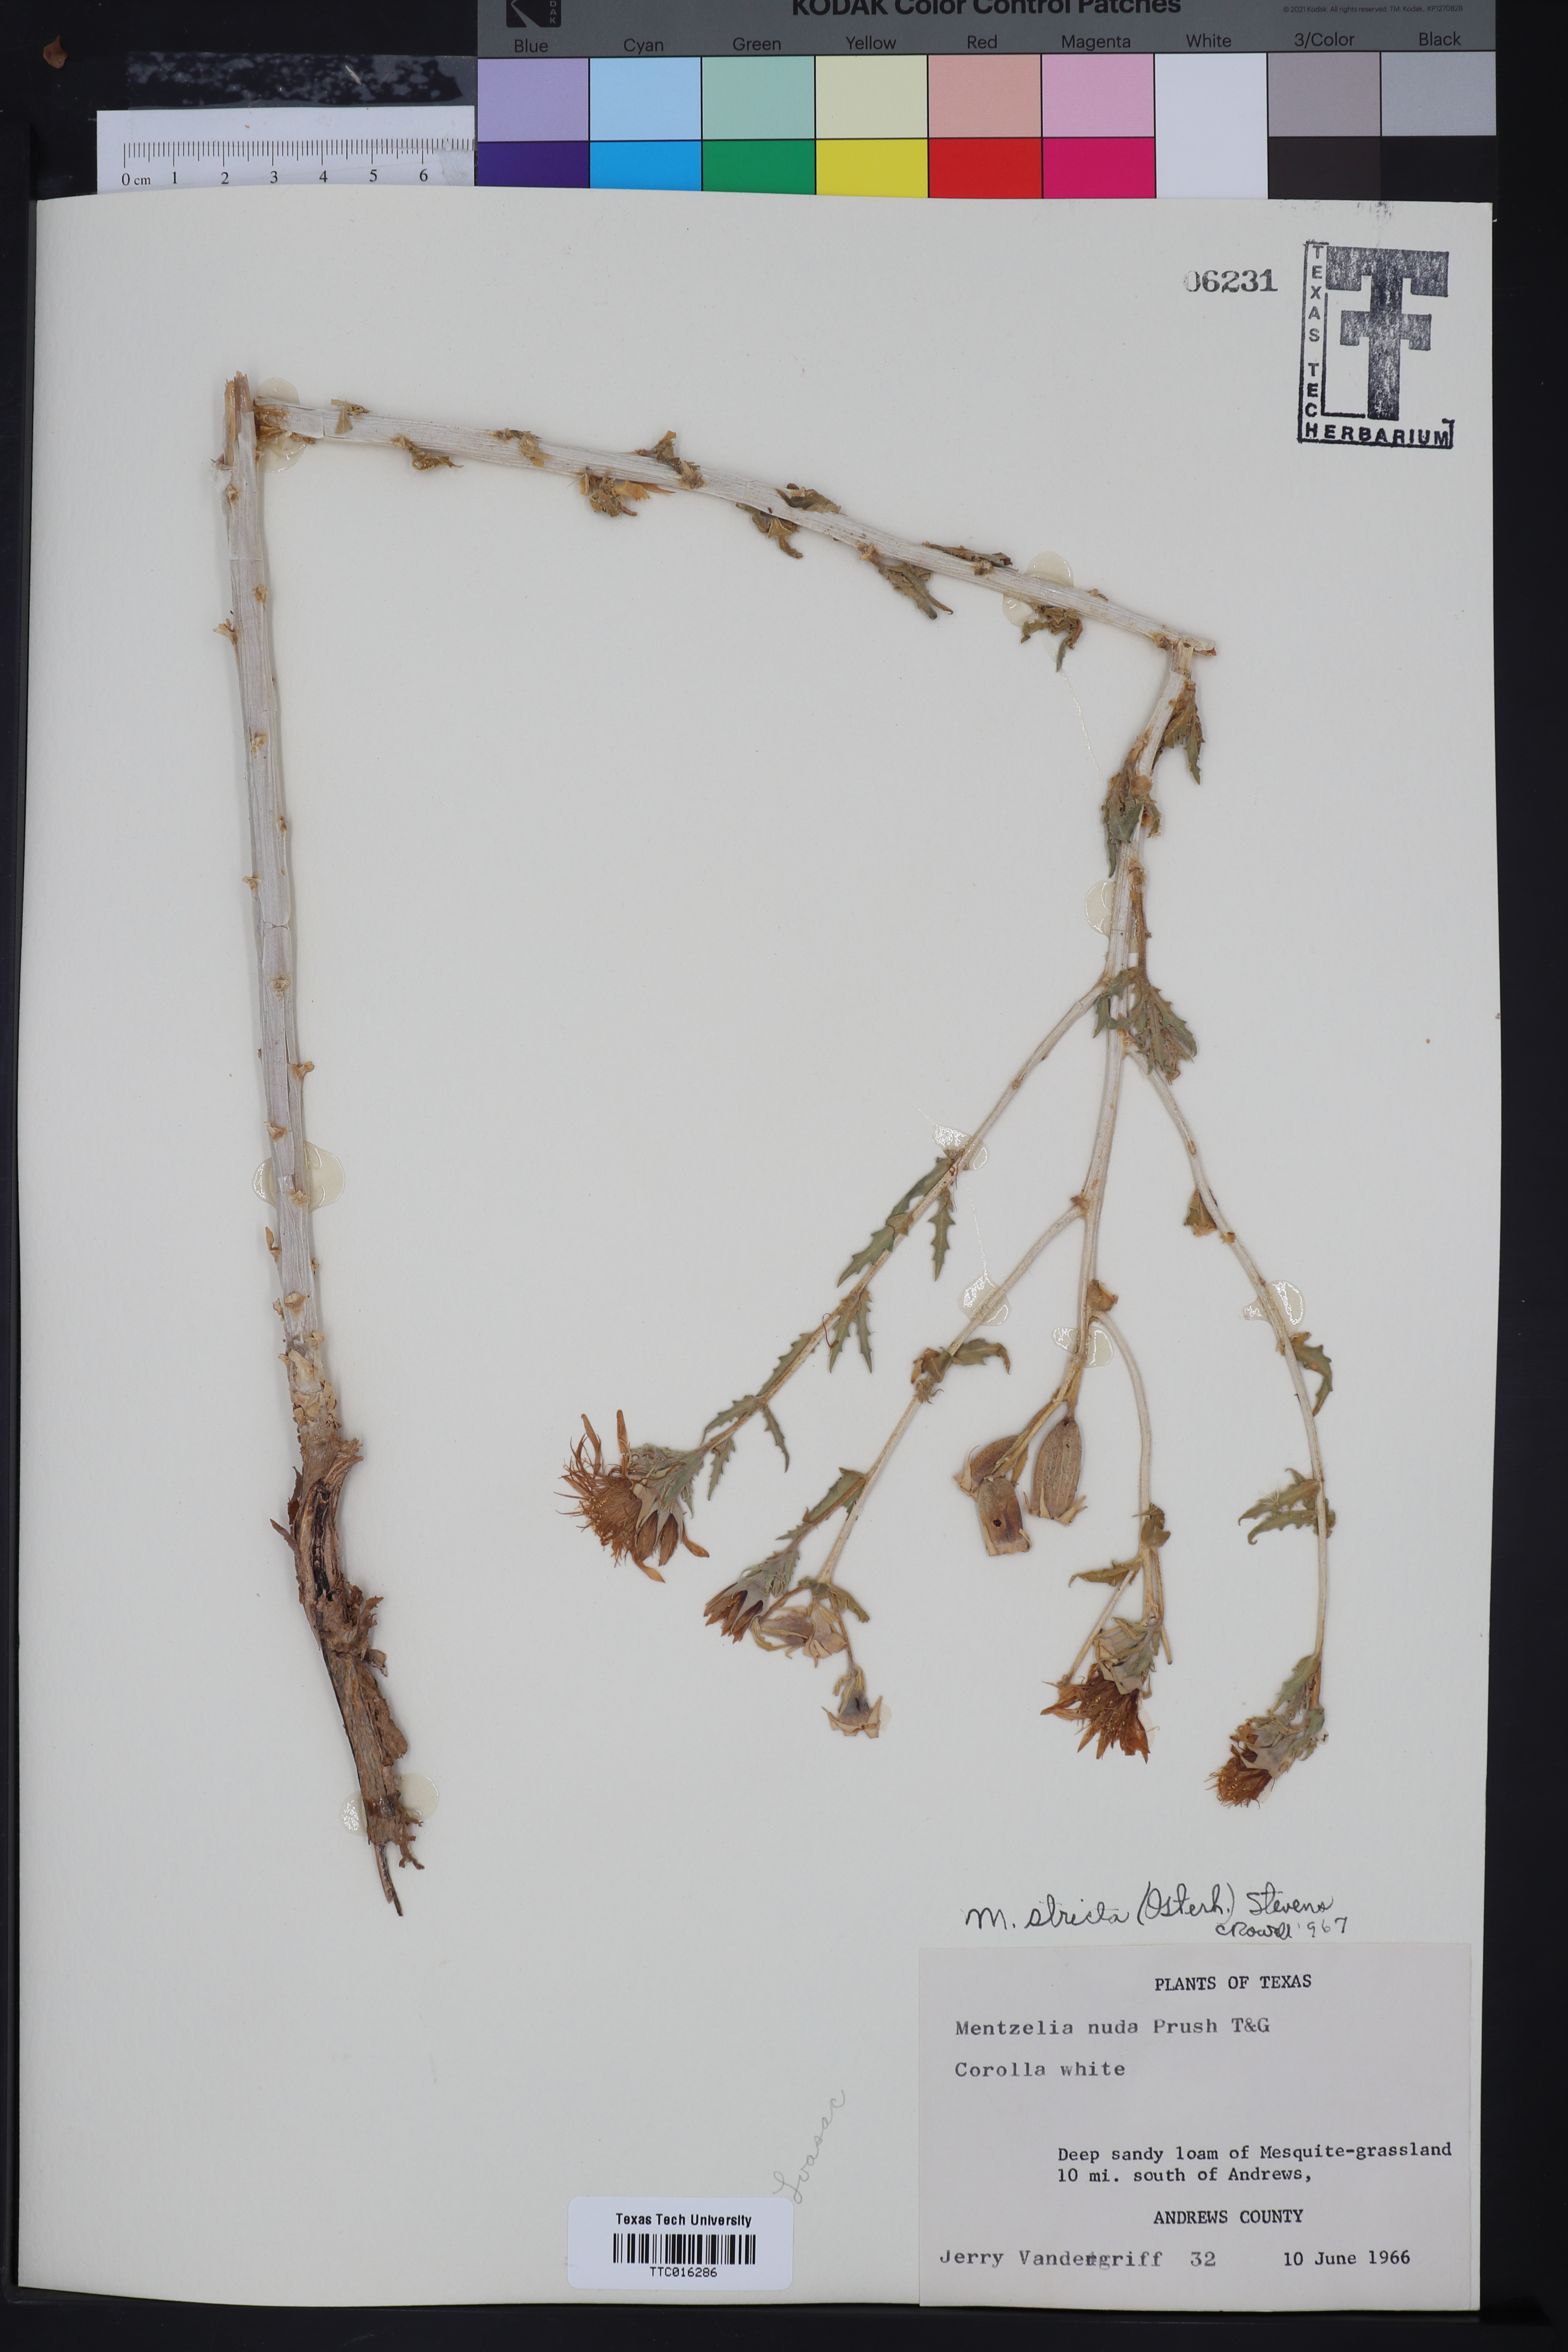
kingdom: Plantae
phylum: Tracheophyta
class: Magnoliopsida
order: Cornales
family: Loasaceae
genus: Mentzelia
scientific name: Mentzelia nuda
